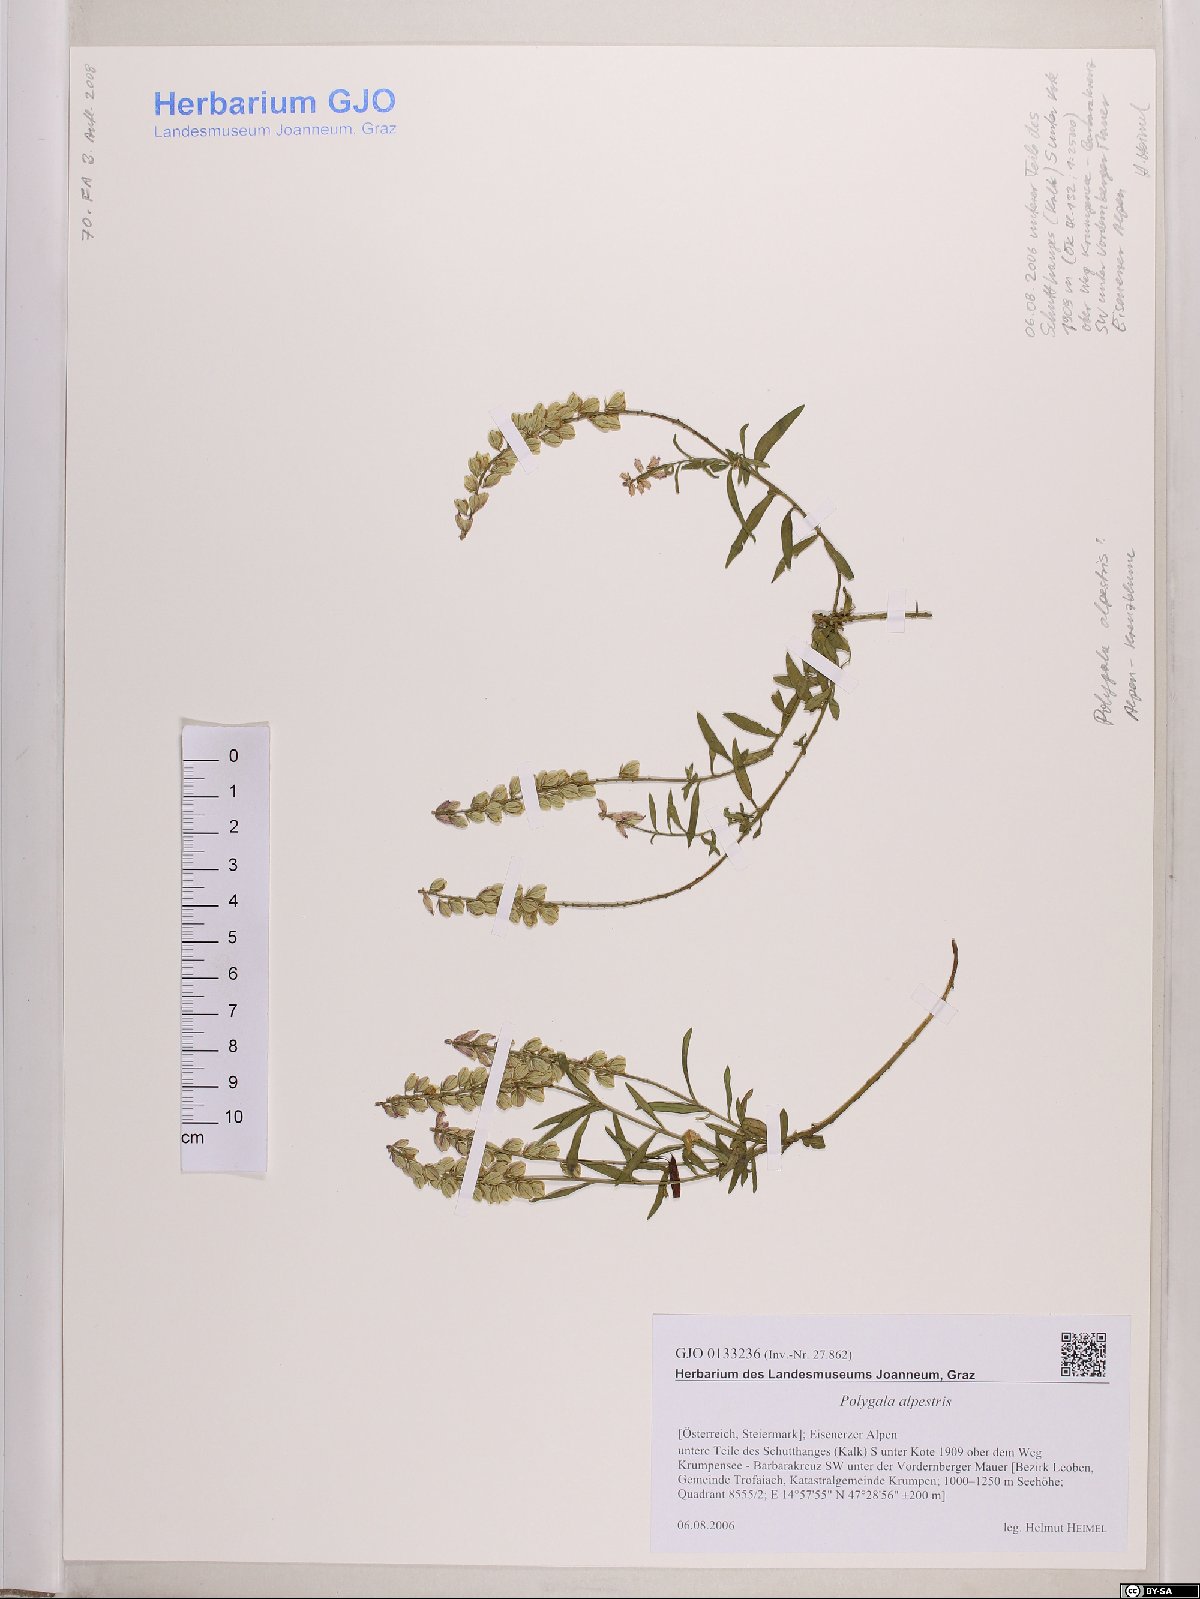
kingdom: Plantae
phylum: Tracheophyta
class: Magnoliopsida
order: Fabales
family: Polygalaceae
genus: Polygala
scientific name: Polygala alpestris
